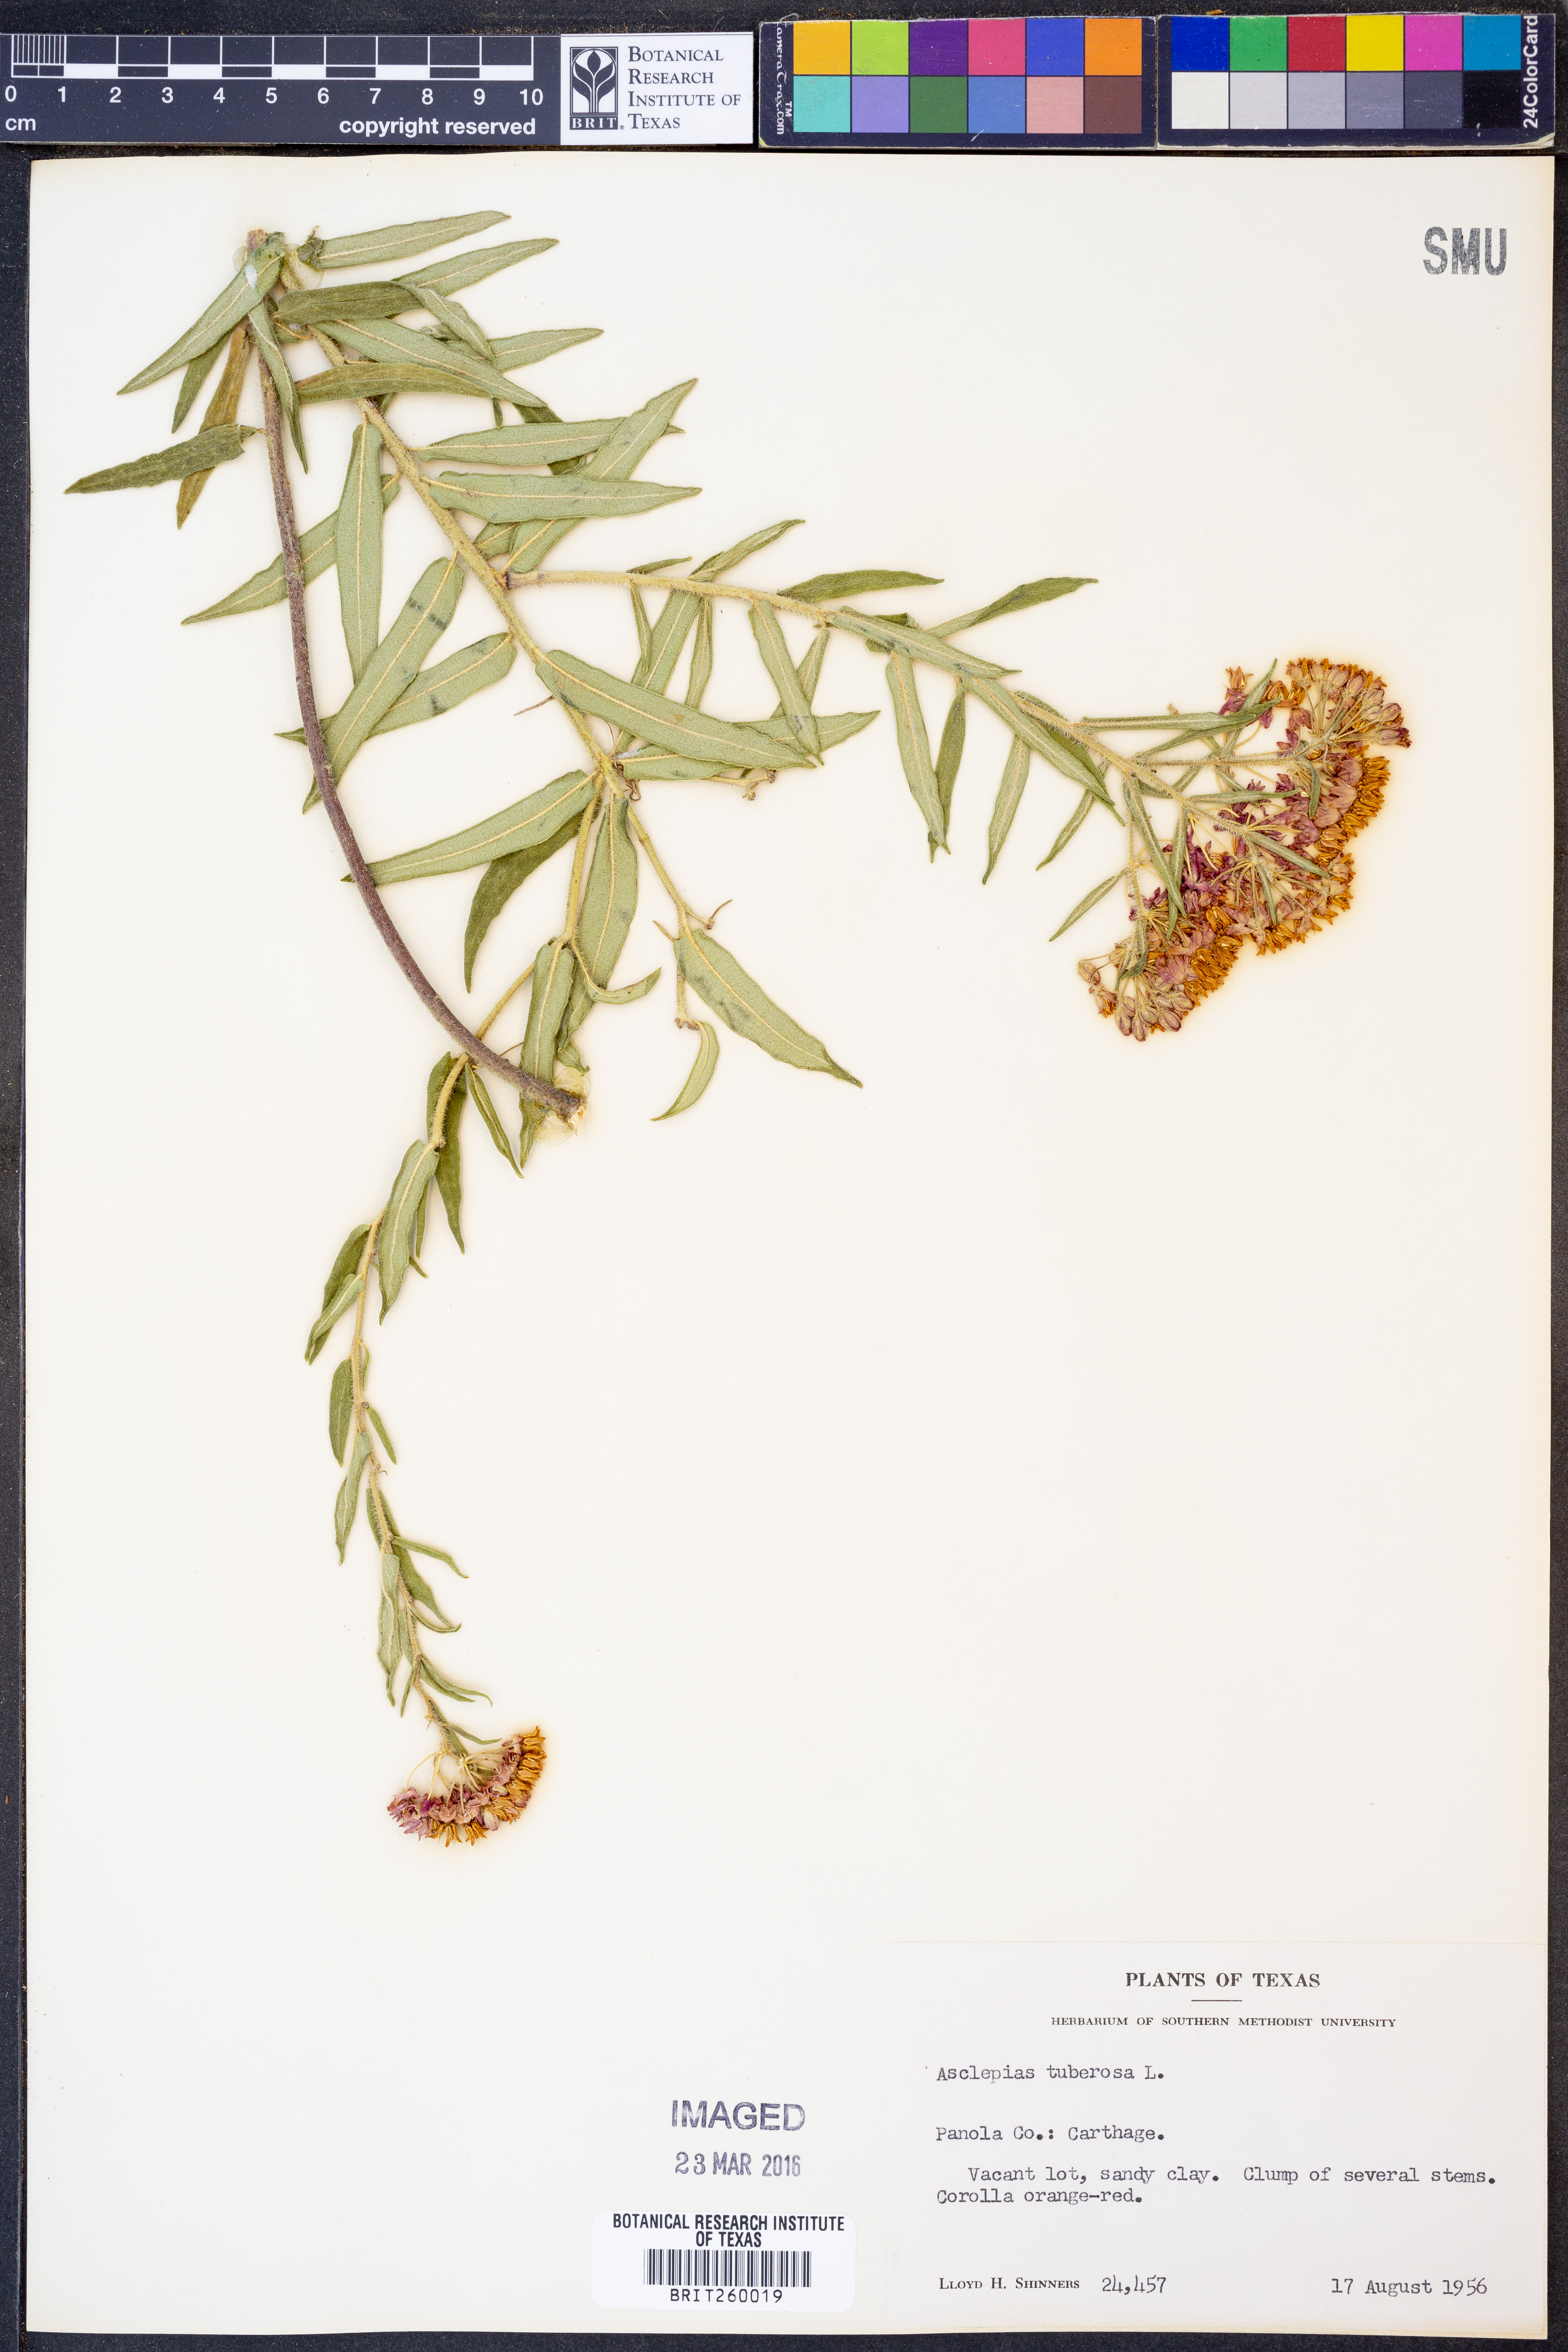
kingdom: Plantae
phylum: Tracheophyta
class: Magnoliopsida
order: Gentianales
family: Apocynaceae
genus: Asclepias
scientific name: Asclepias tuberosa
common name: Butterfly milkweed
